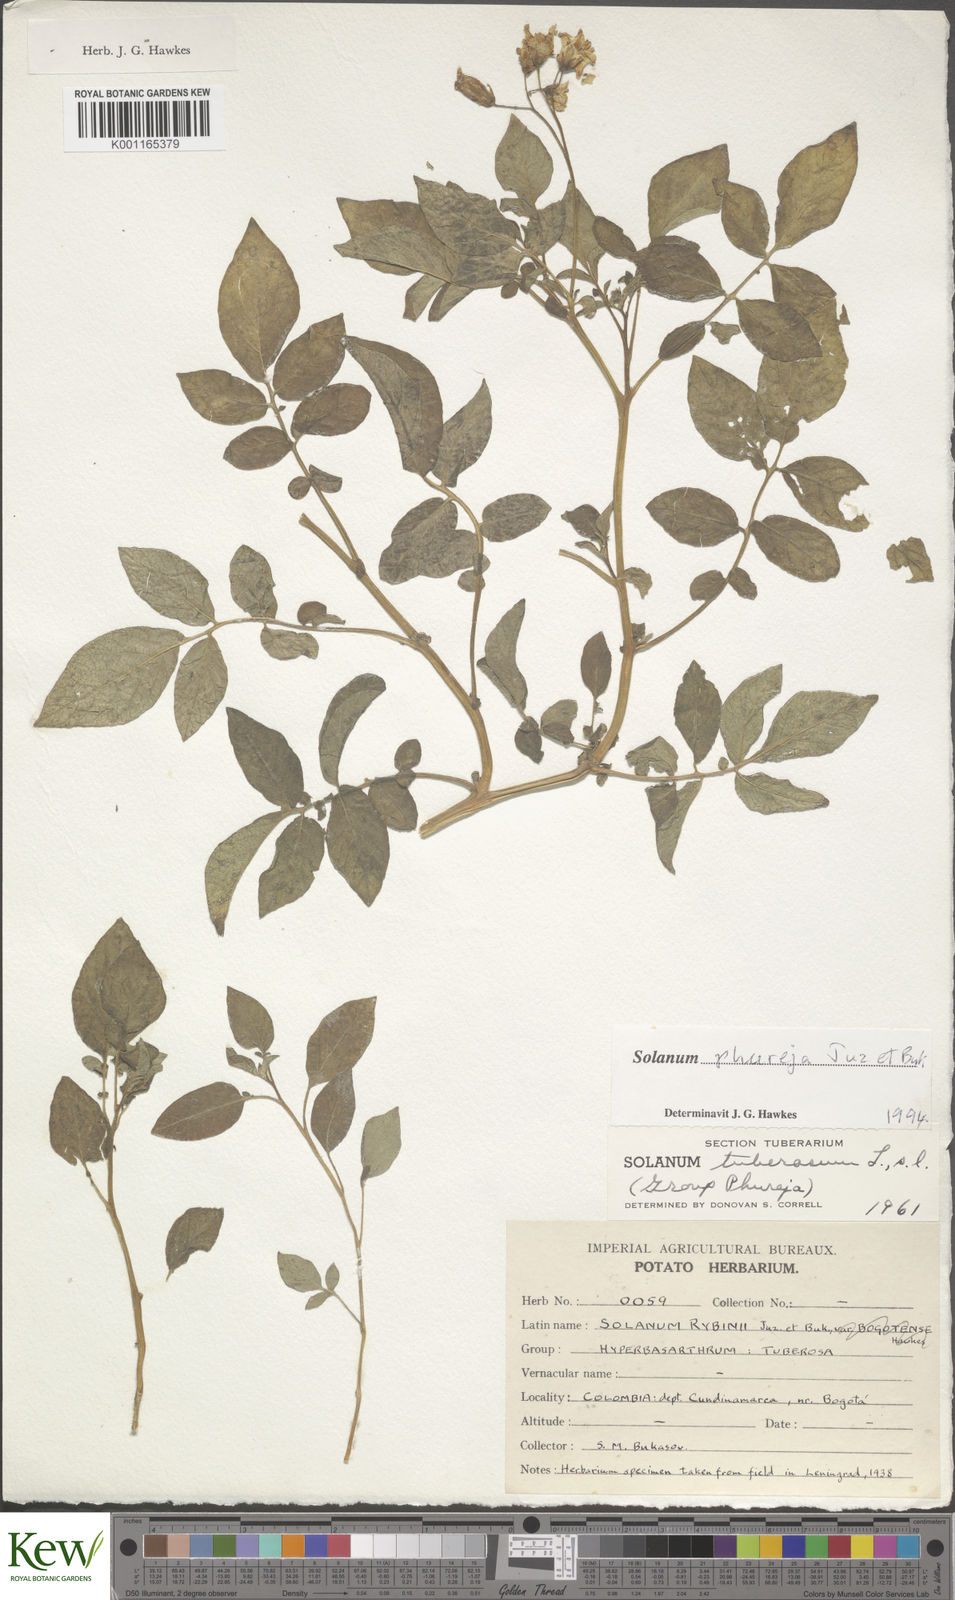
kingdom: Plantae
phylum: Tracheophyta
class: Magnoliopsida
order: Solanales
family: Solanaceae
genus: Solanum
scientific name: Solanum tuberosum
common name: Potato
